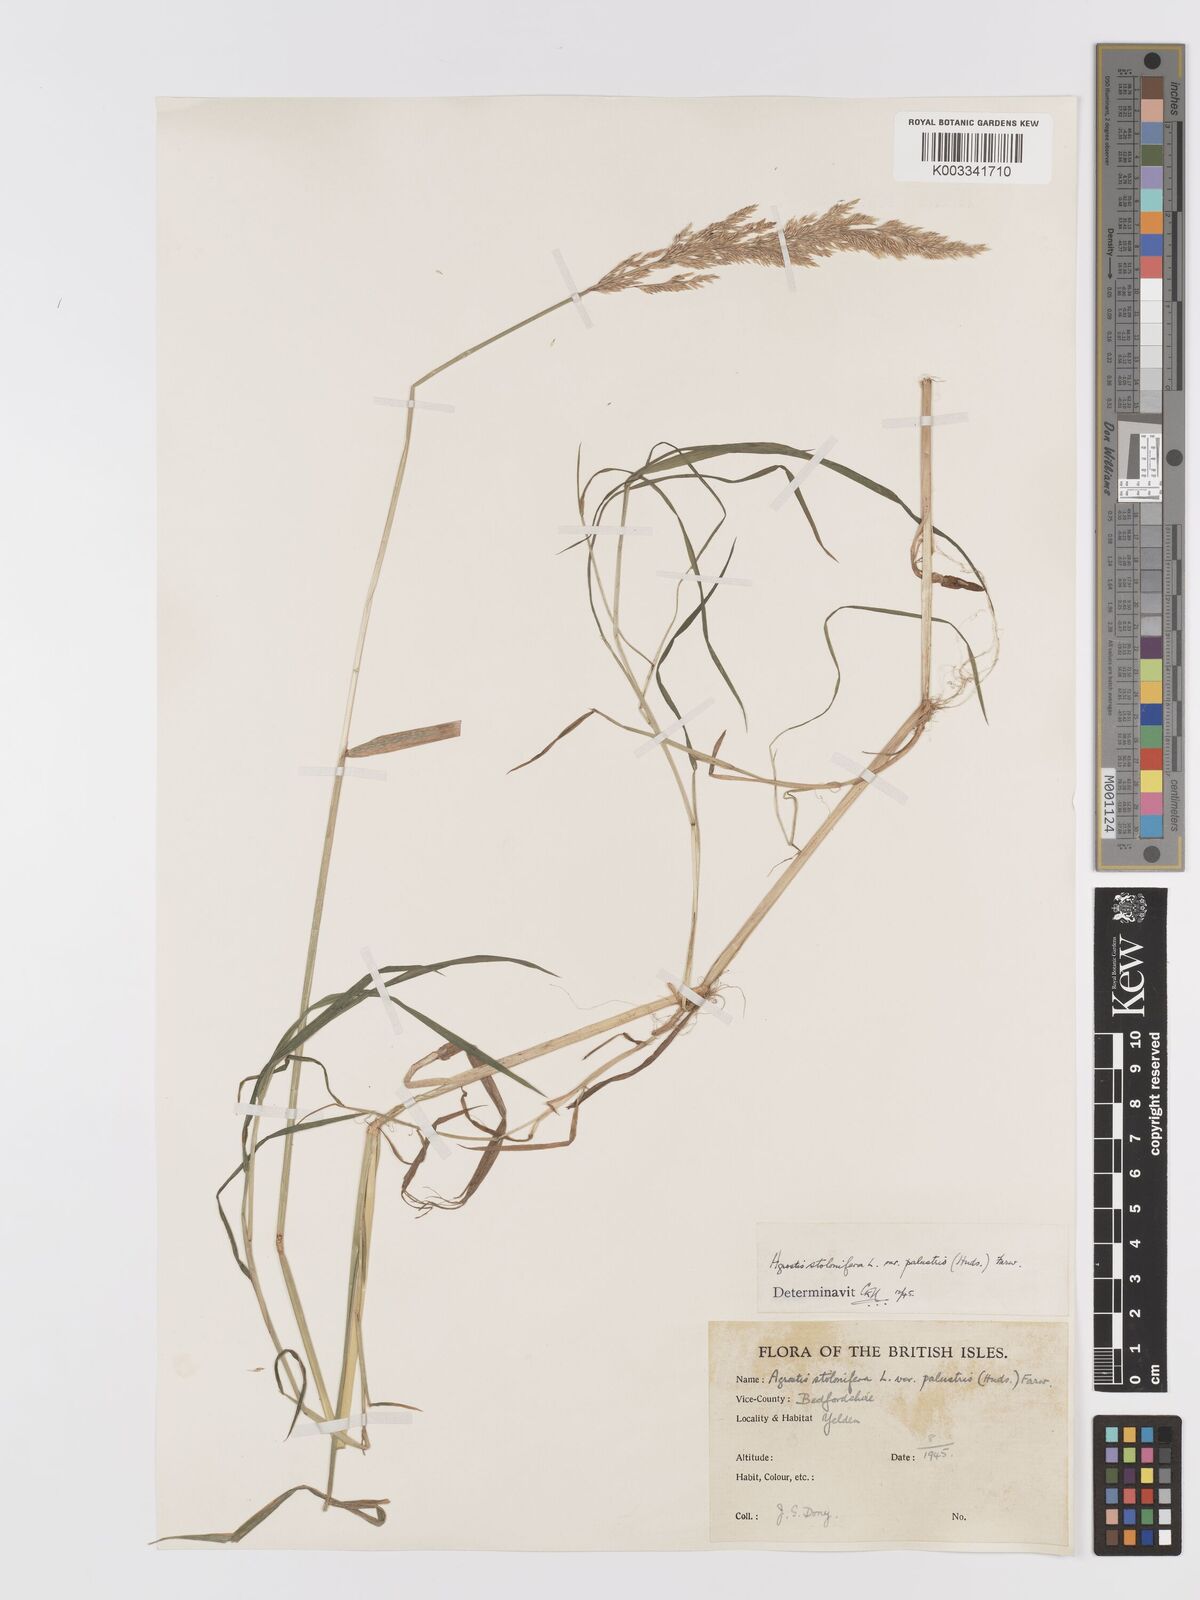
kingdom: Plantae
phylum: Tracheophyta
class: Liliopsida
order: Poales
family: Poaceae
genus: Agrostis
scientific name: Agrostis stolonifera
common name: Creeping bentgrass
